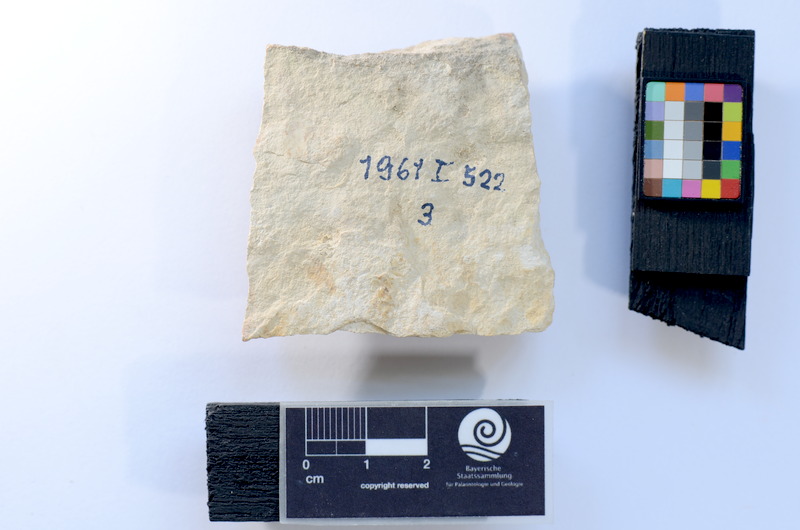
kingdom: Animalia
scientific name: Animalia
